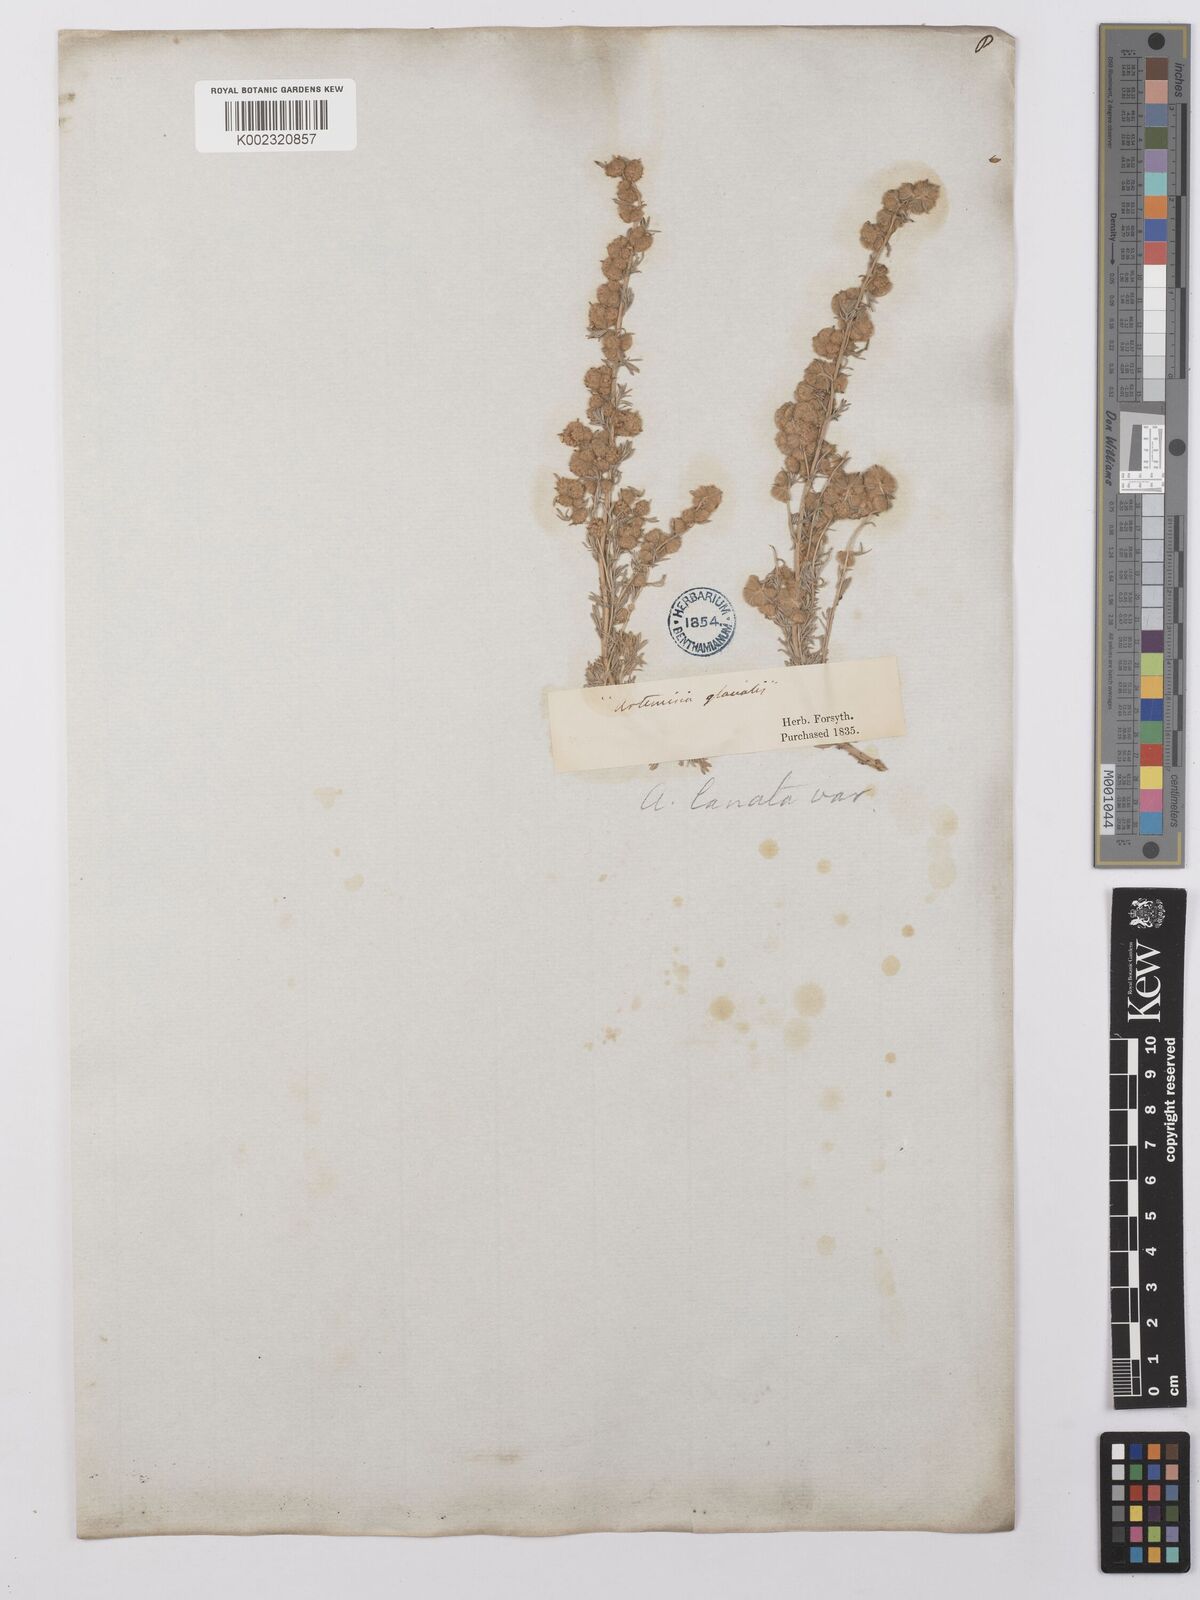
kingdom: Plantae
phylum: Tracheophyta
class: Magnoliopsida
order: Asterales
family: Asteraceae
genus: Artemisia
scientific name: Artemisia
